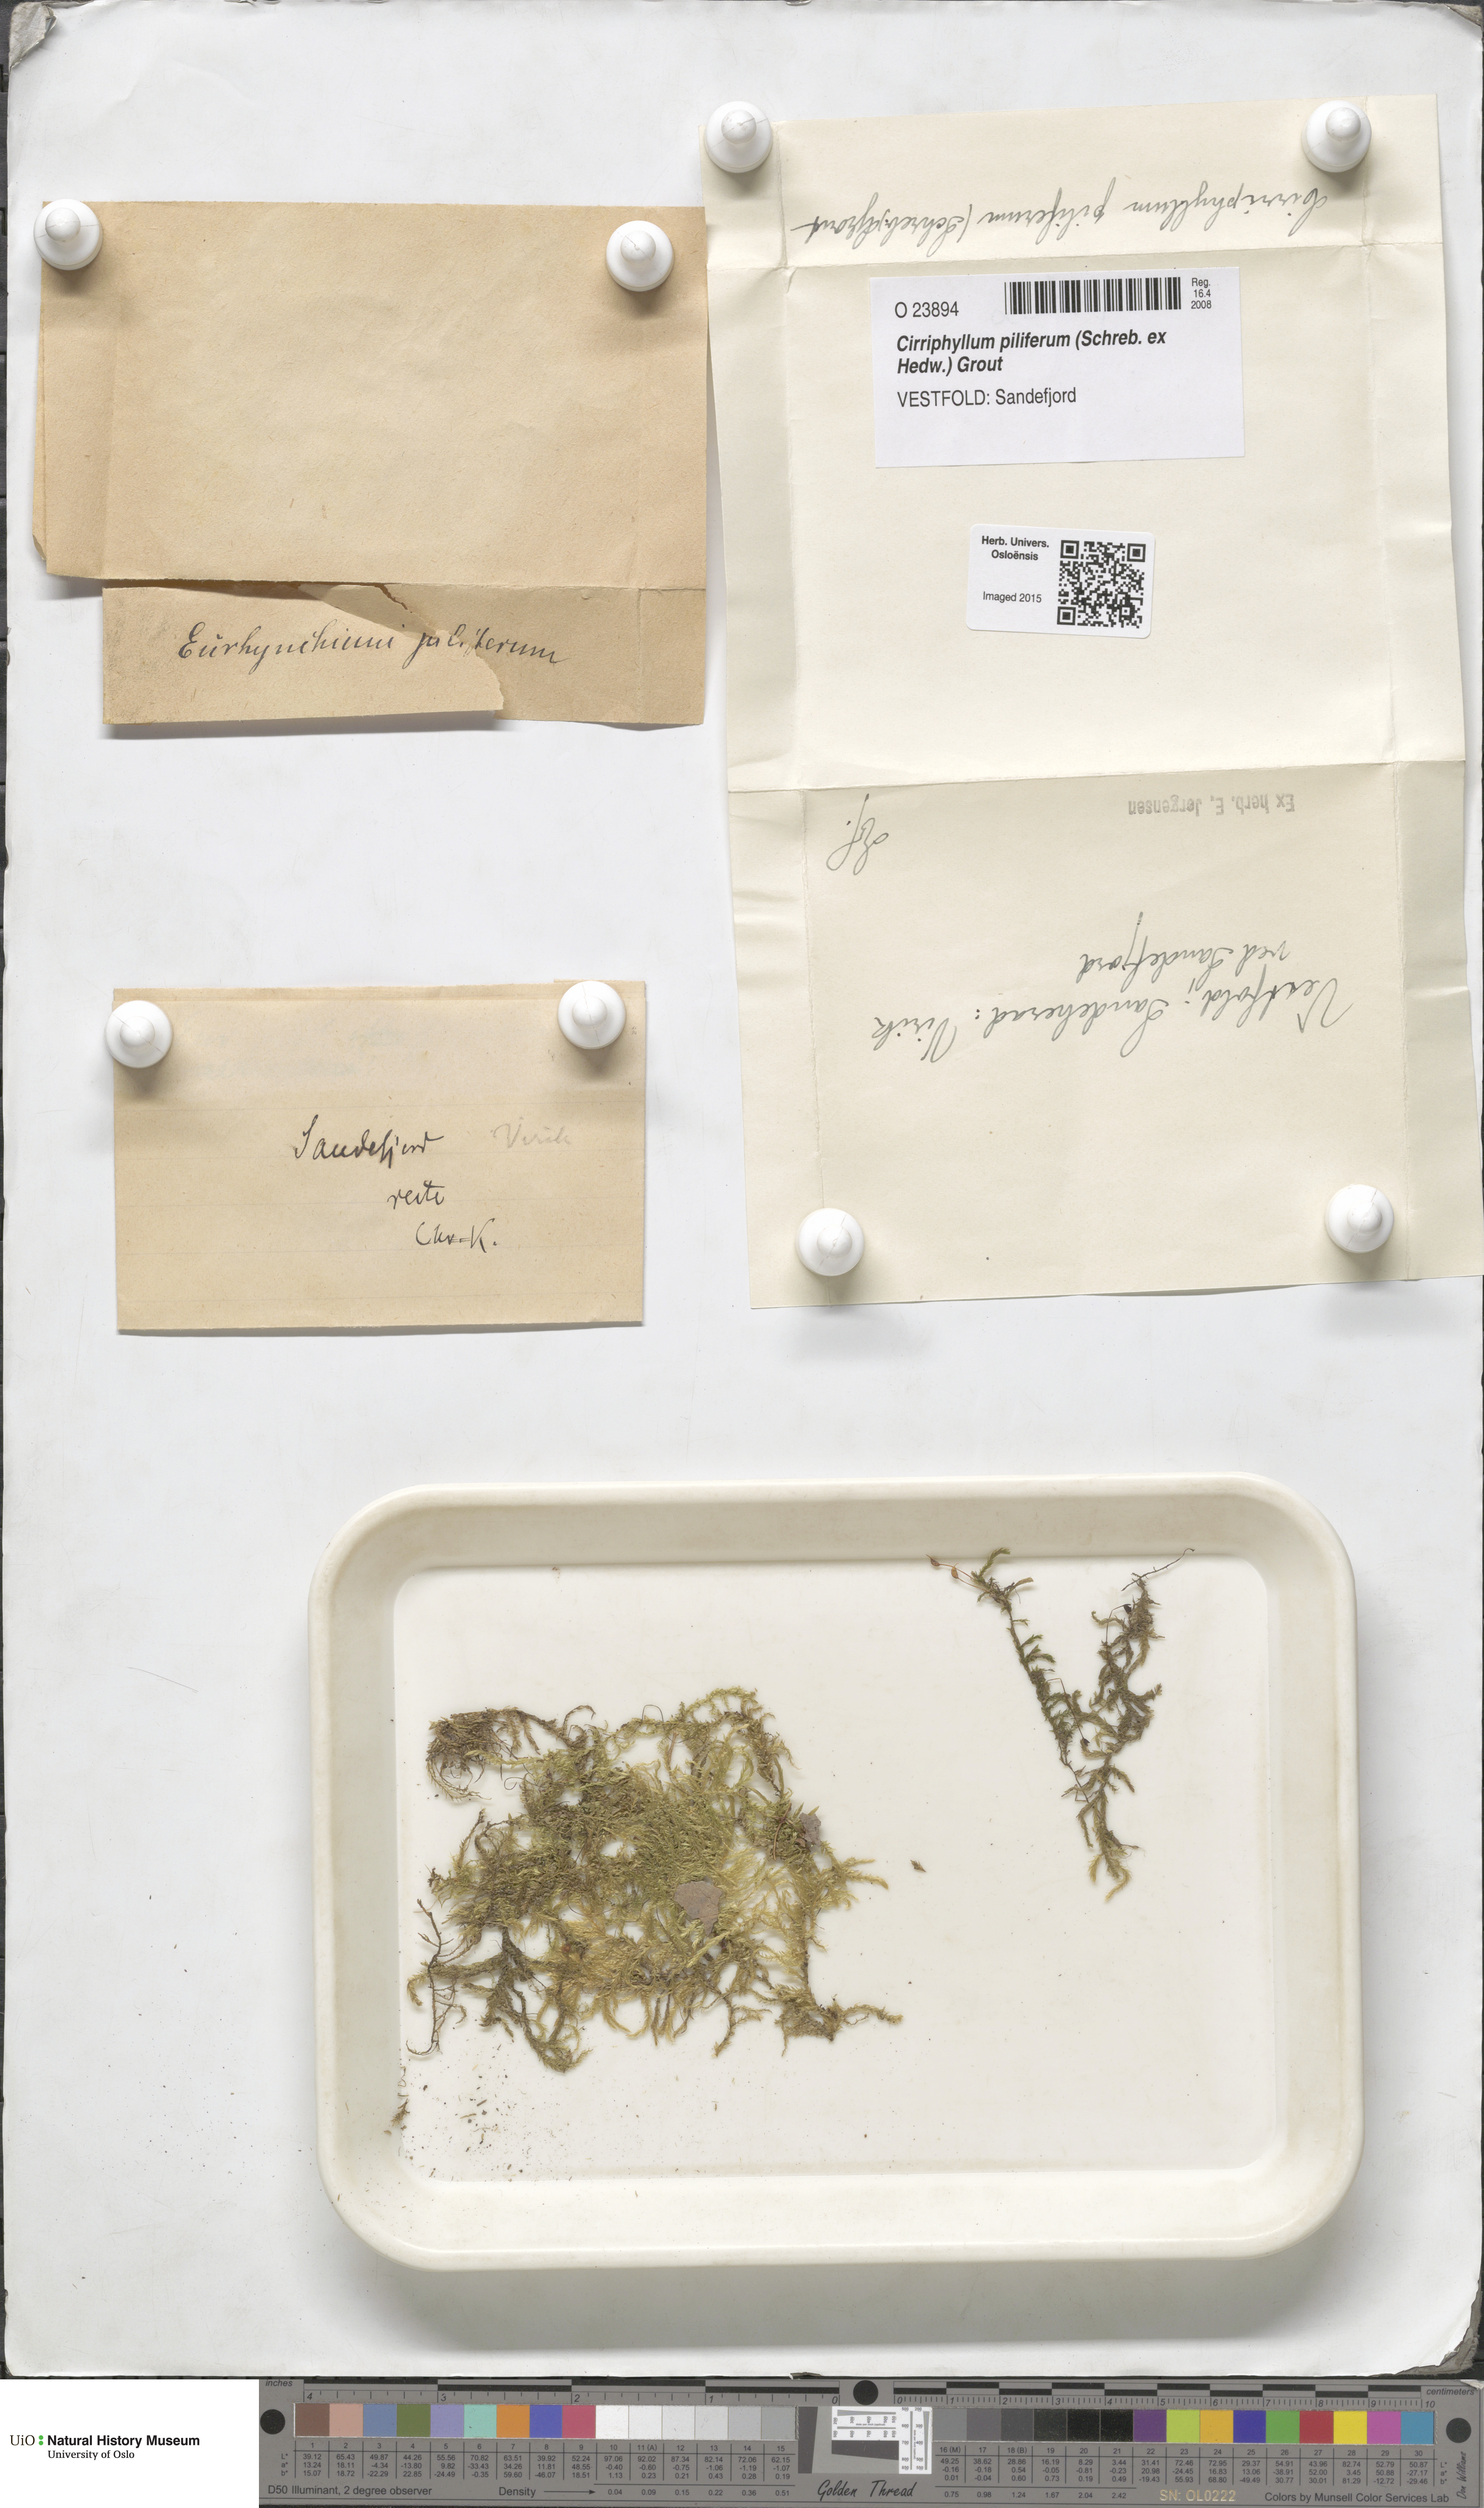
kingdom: Plantae
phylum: Bryophyta
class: Bryopsida
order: Hypnales
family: Brachytheciaceae
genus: Cirriphyllum
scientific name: Cirriphyllum piliferum
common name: Hair-pointed moss
